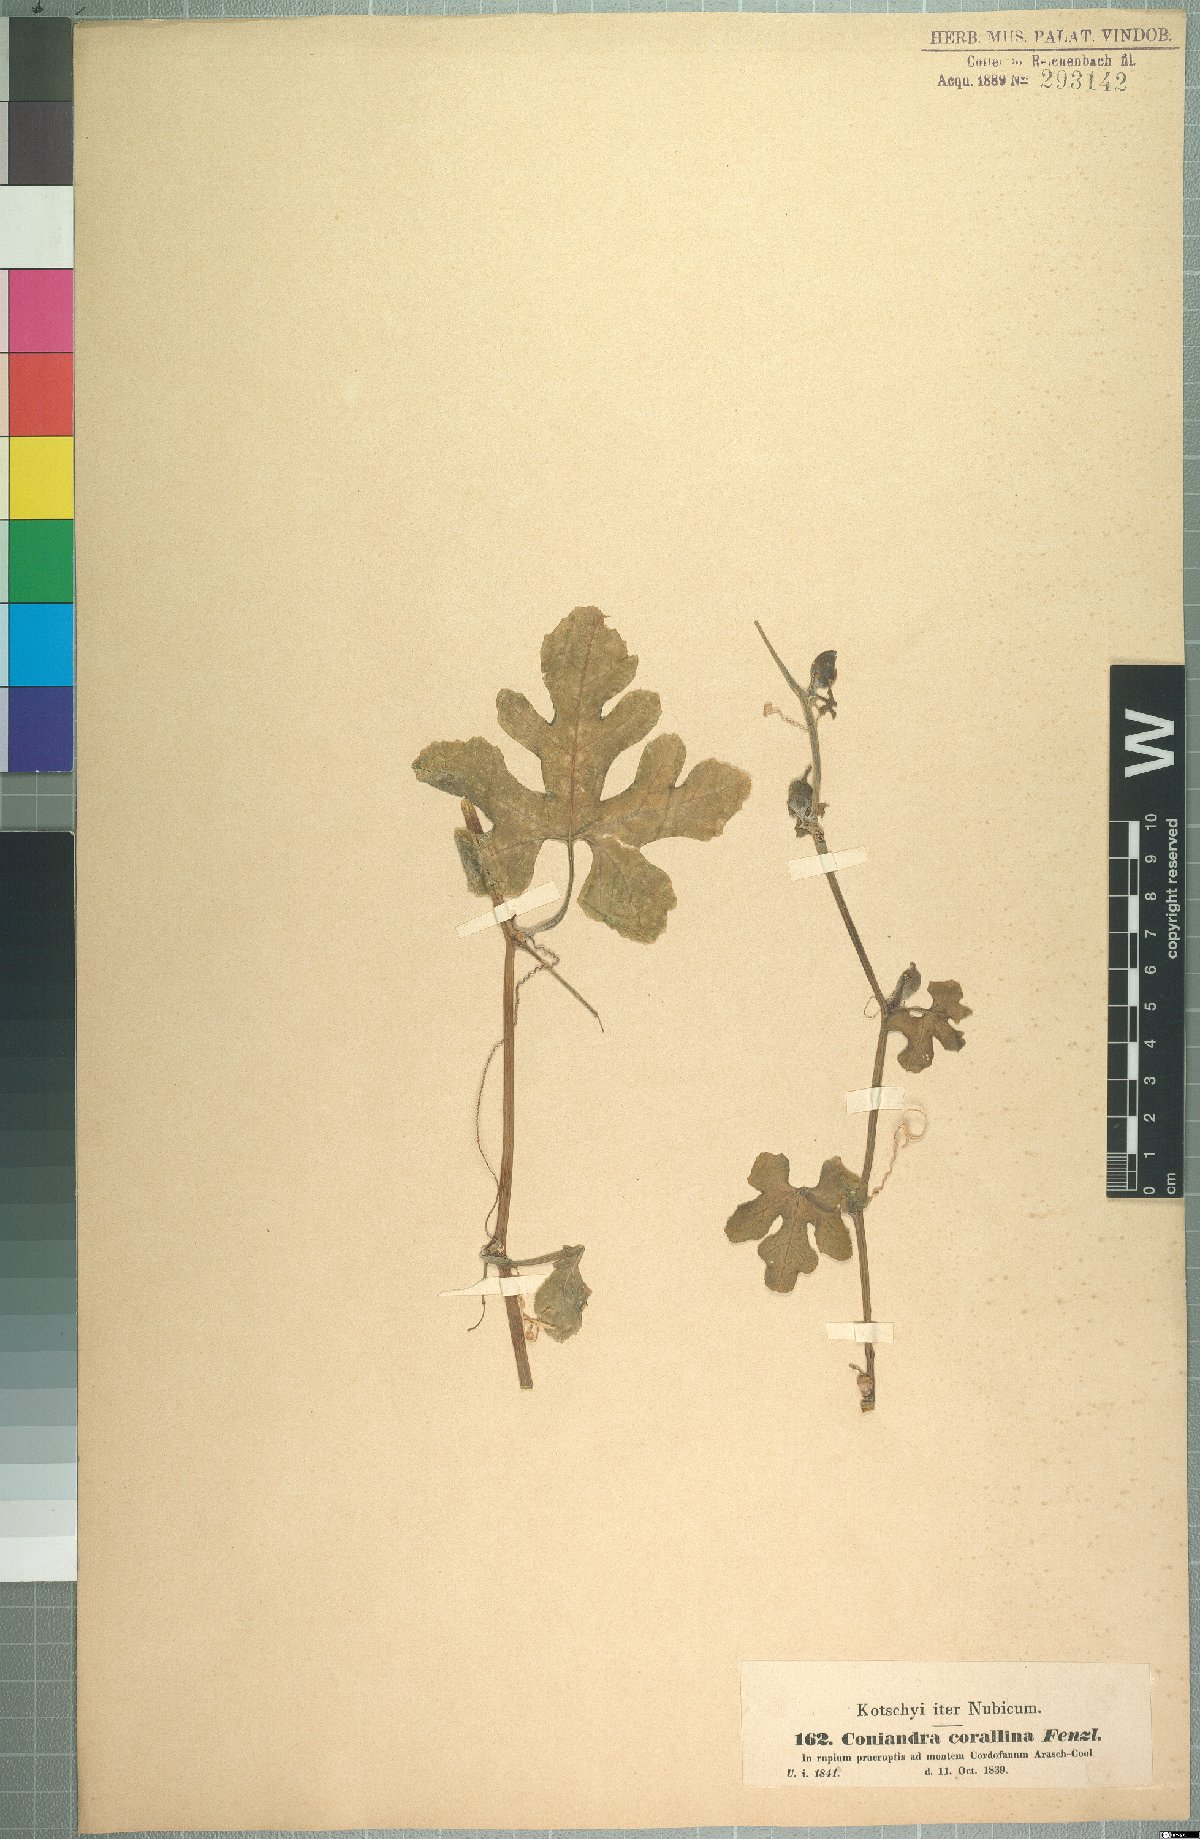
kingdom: Plantae
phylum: Tracheophyta
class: Magnoliopsida
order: Cucurbitales
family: Cucurbitaceae
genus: Corallocarpus
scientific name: Corallocarpus epigaeus
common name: Indian bryonia
